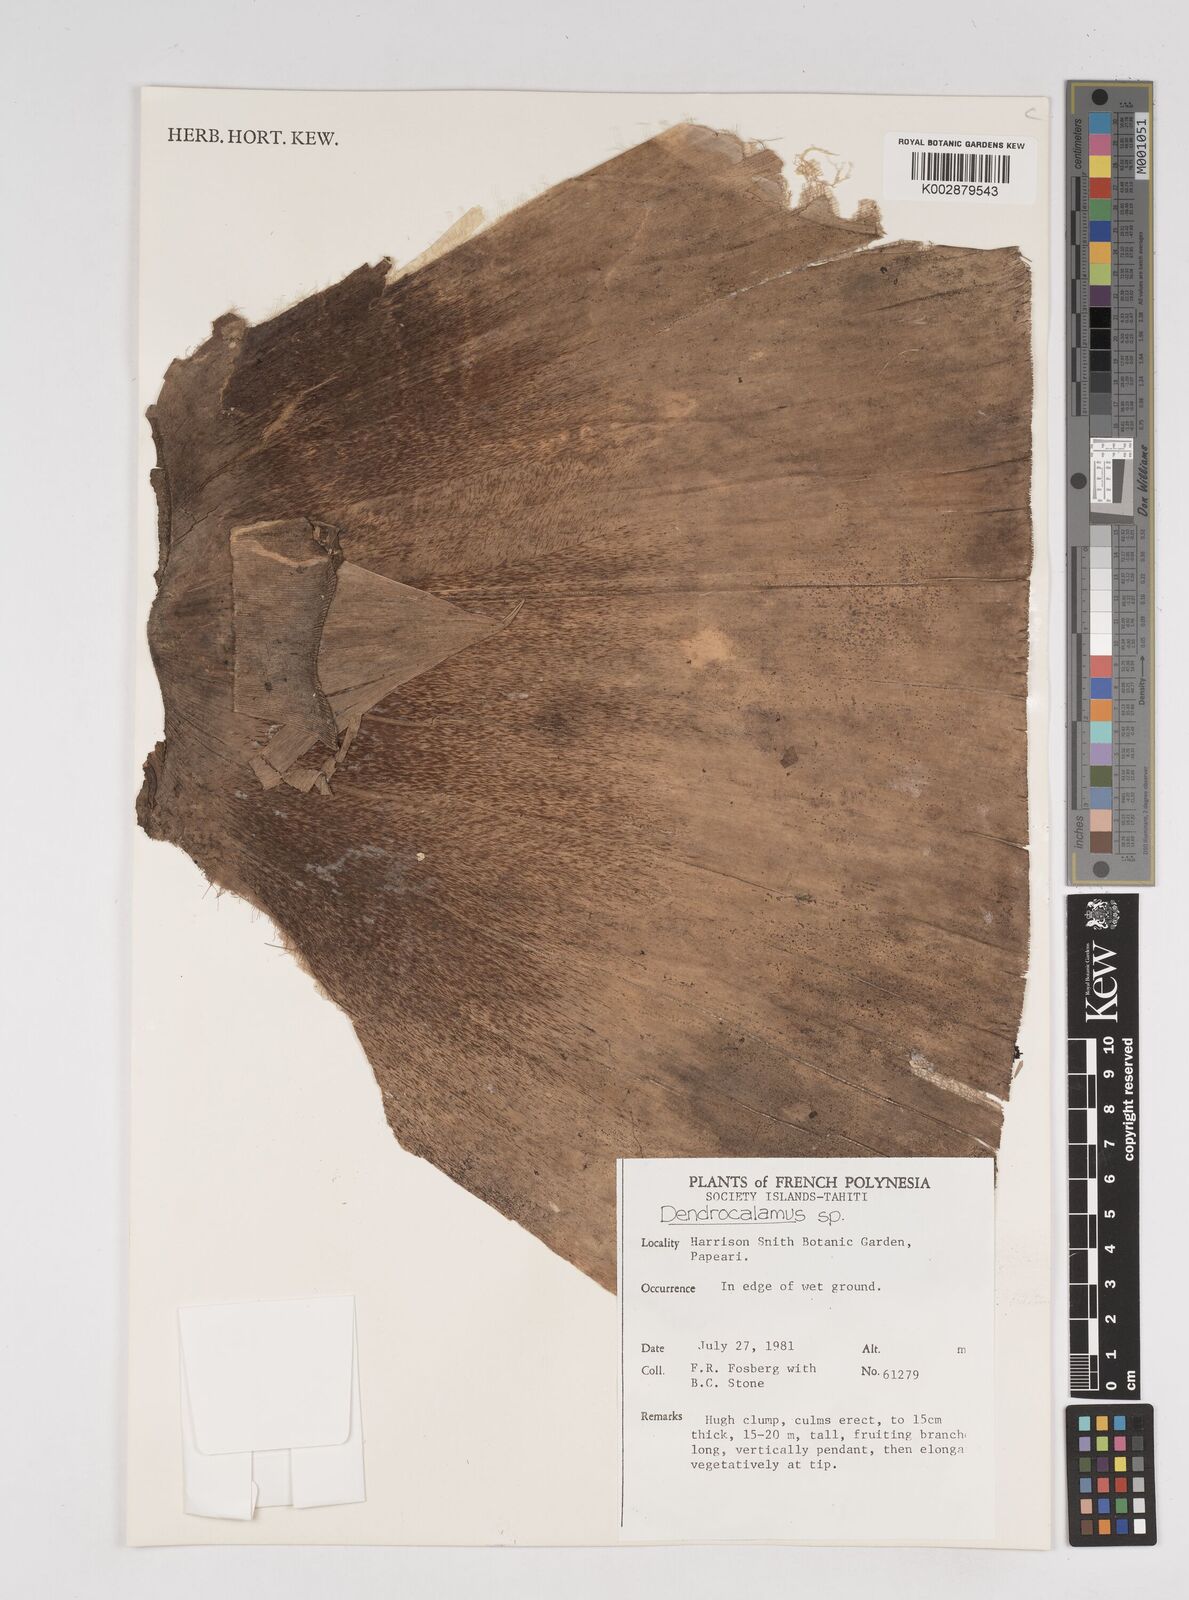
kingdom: Plantae
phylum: Tracheophyta
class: Liliopsida
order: Poales
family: Poaceae
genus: Dendrocalamus
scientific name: Dendrocalamus
